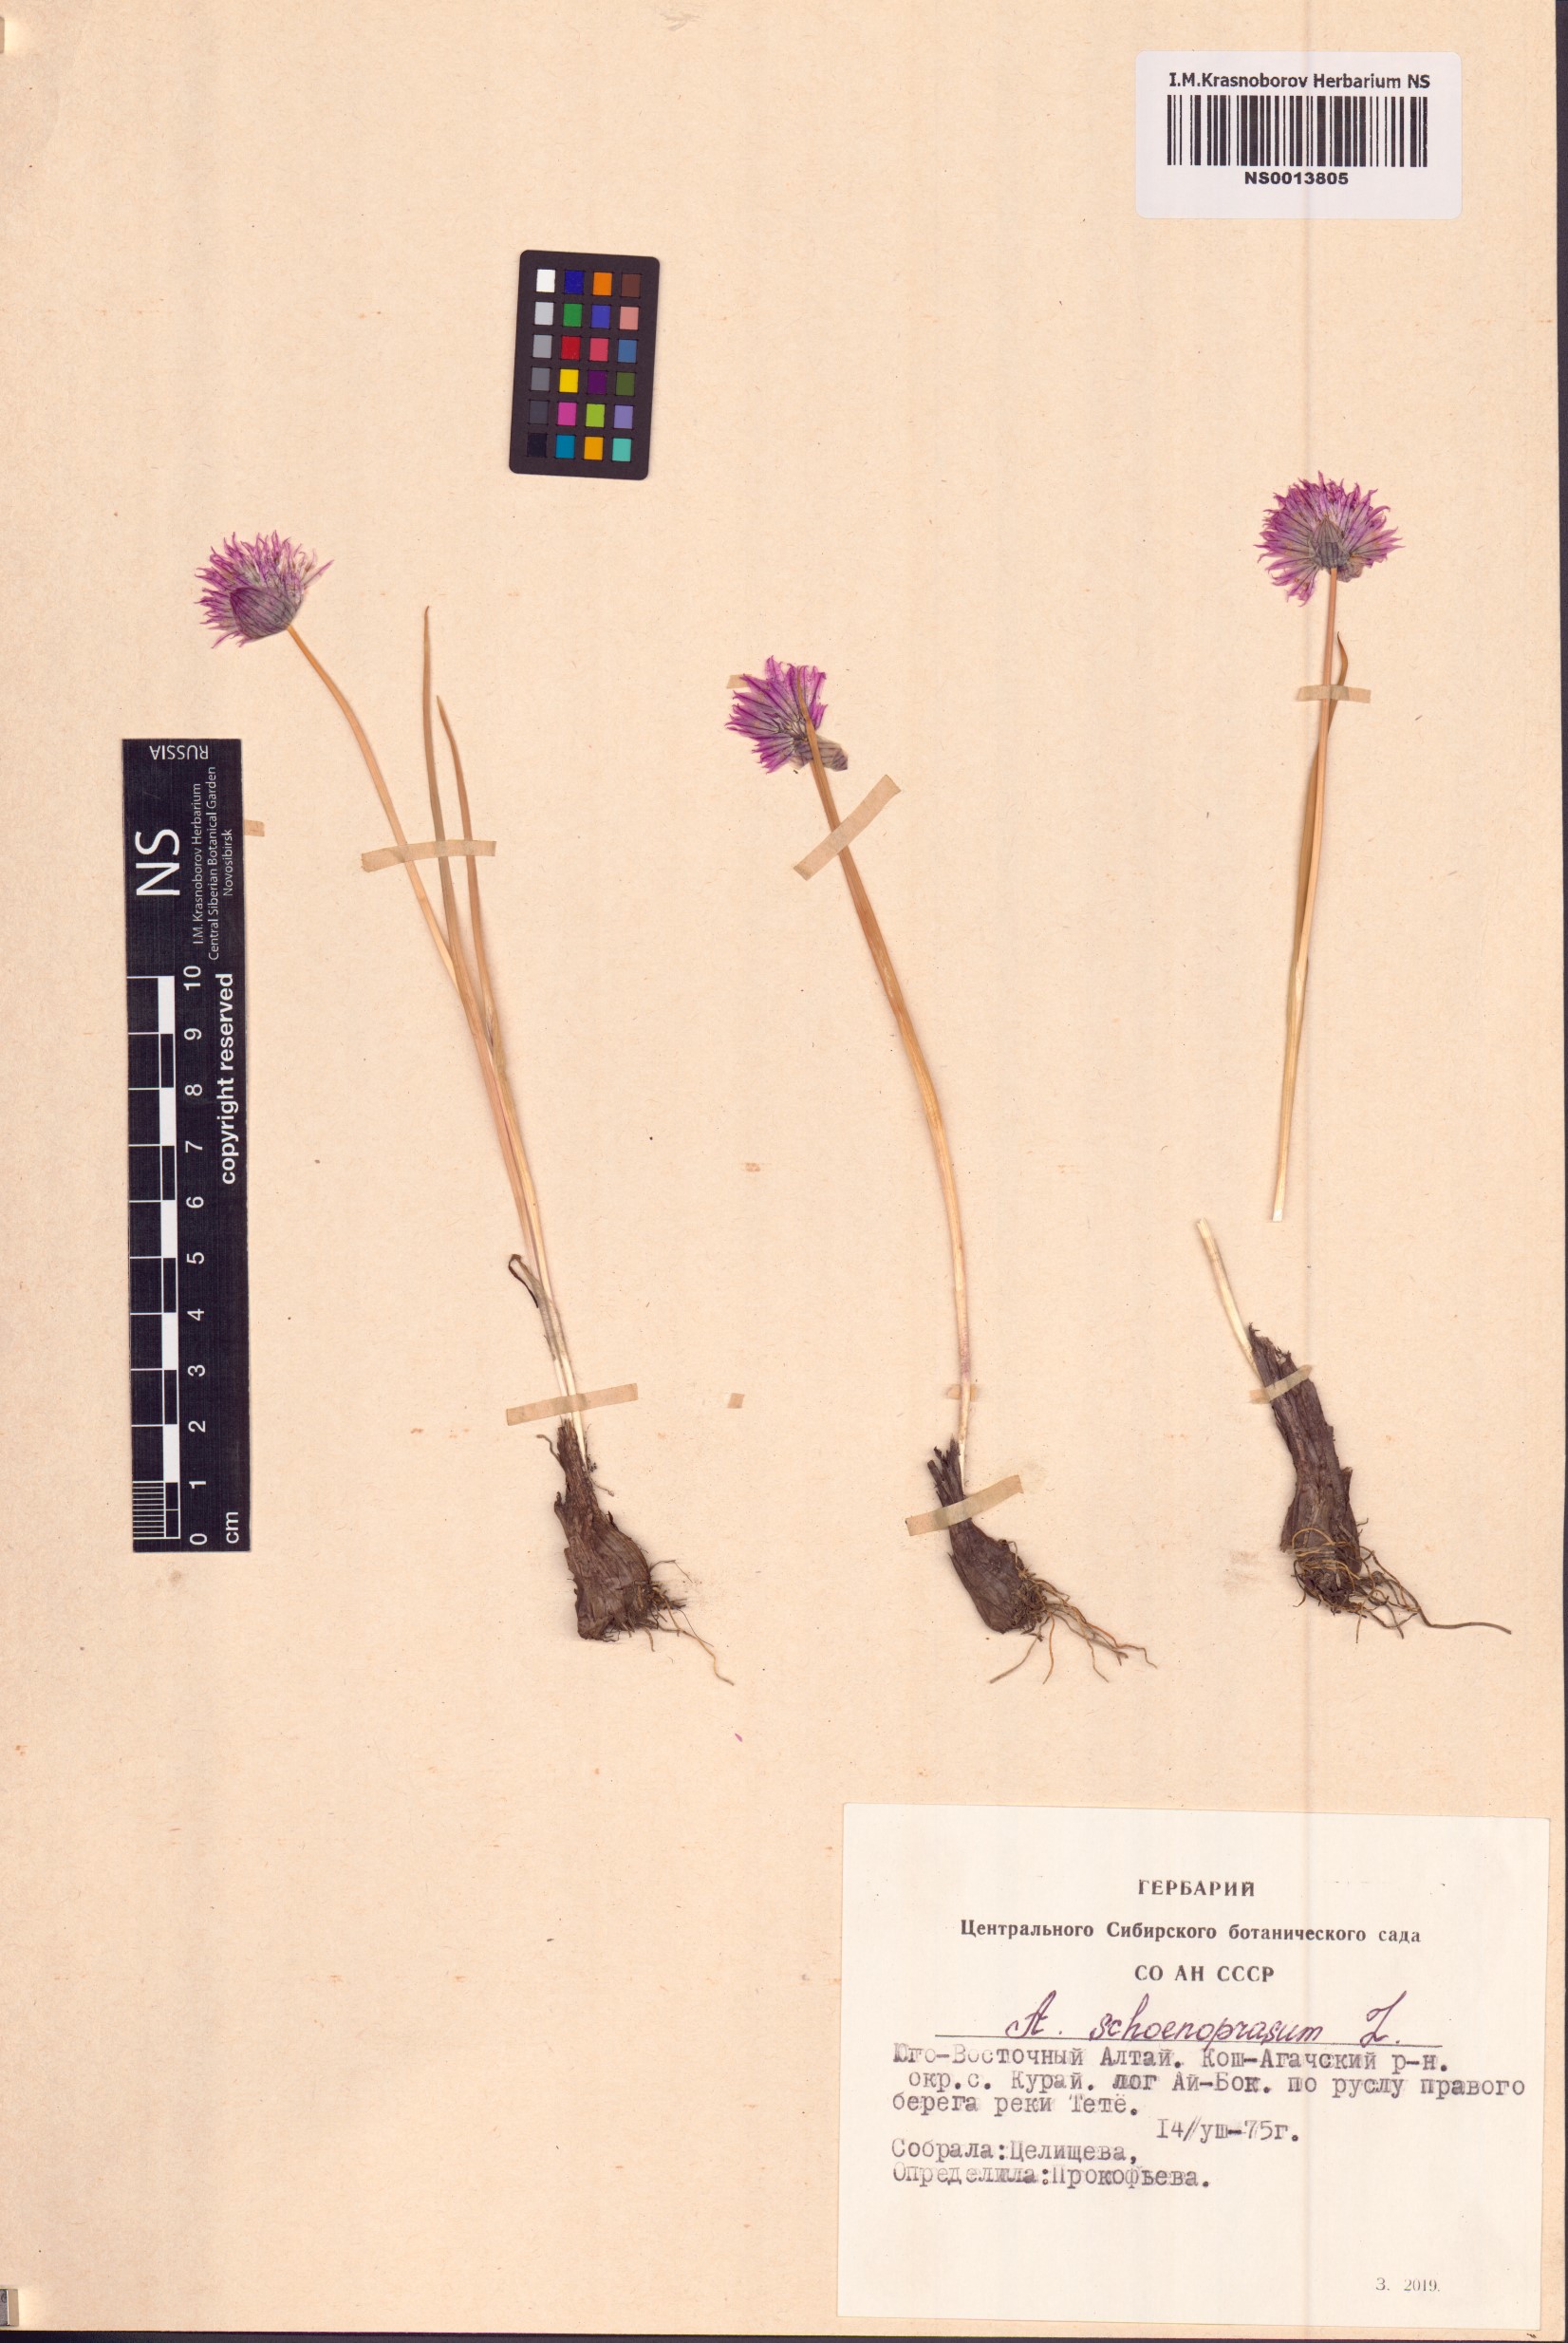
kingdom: Plantae
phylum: Tracheophyta
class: Liliopsida
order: Asparagales
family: Amaryllidaceae
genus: Allium
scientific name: Allium schoenoprasum
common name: Chives
